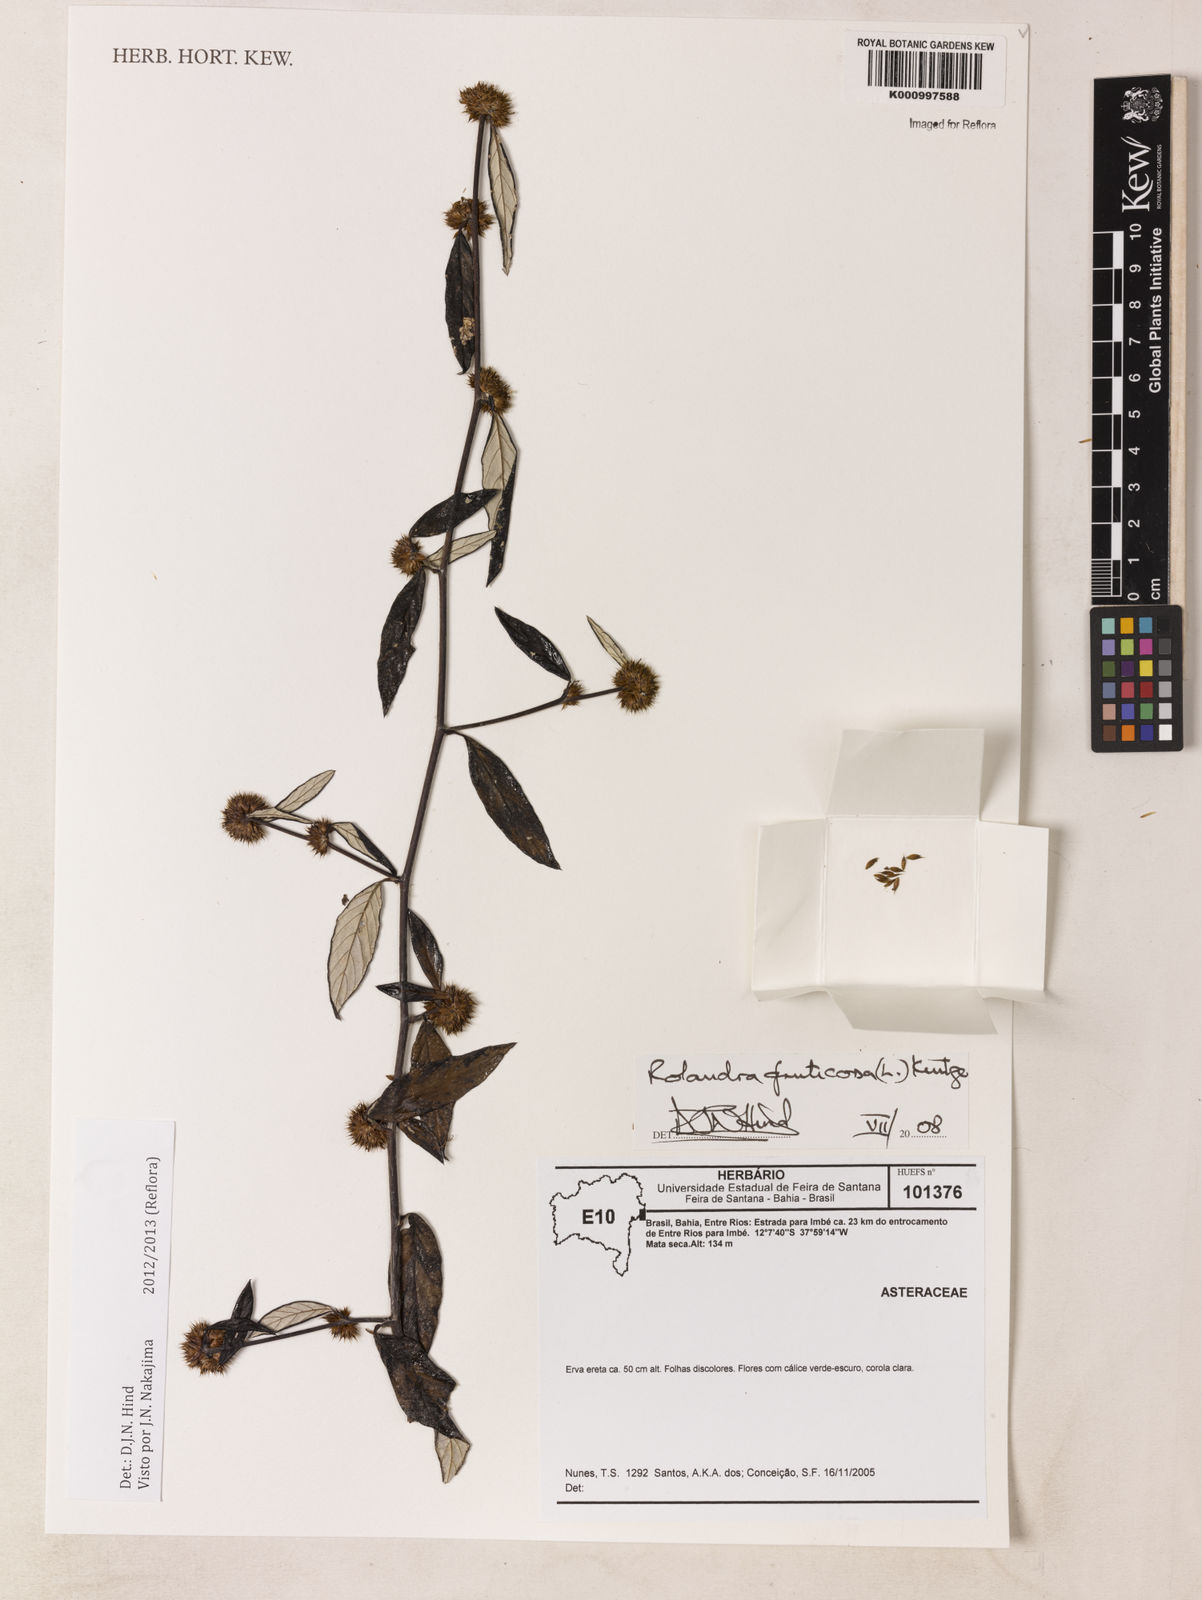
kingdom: Plantae
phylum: Tracheophyta
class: Magnoliopsida
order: Asterales
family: Asteraceae
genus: Rolandra
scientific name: Rolandra fruticosa
